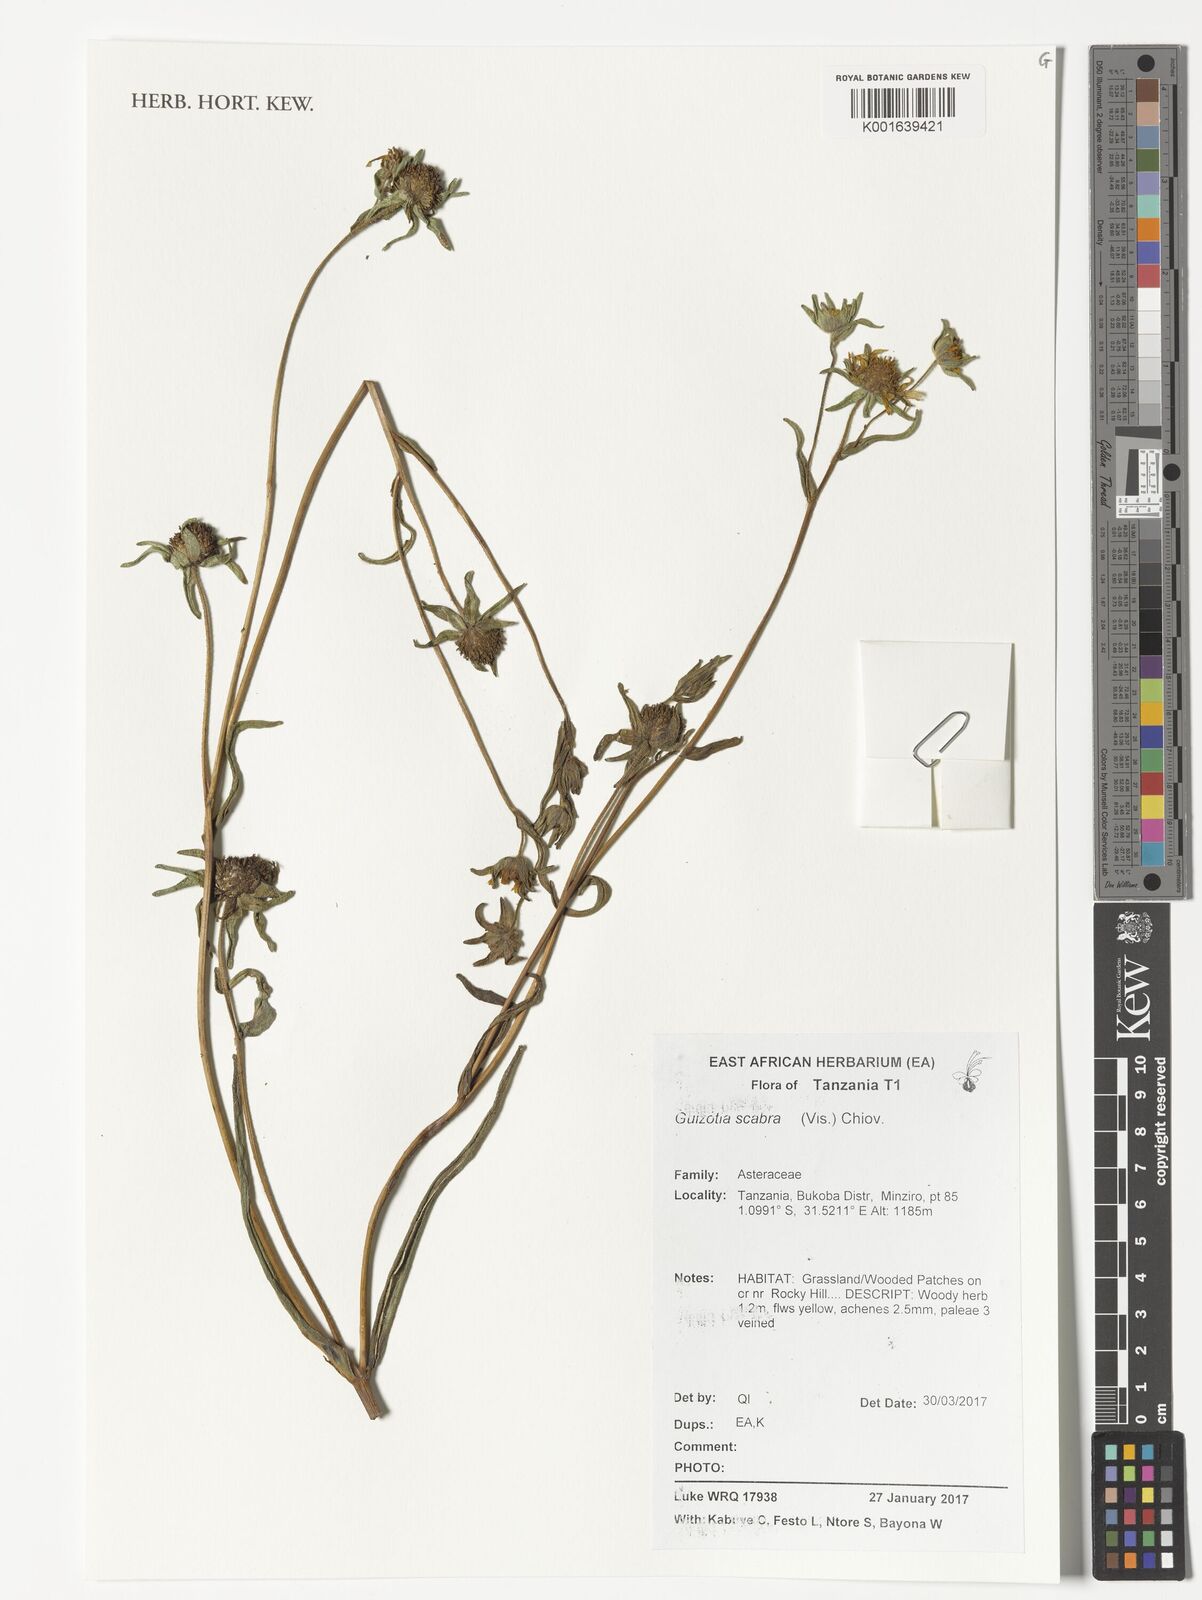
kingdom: Plantae
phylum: Tracheophyta
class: Magnoliopsida
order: Asterales
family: Asteraceae
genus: Guizotia
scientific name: Guizotia scabra
